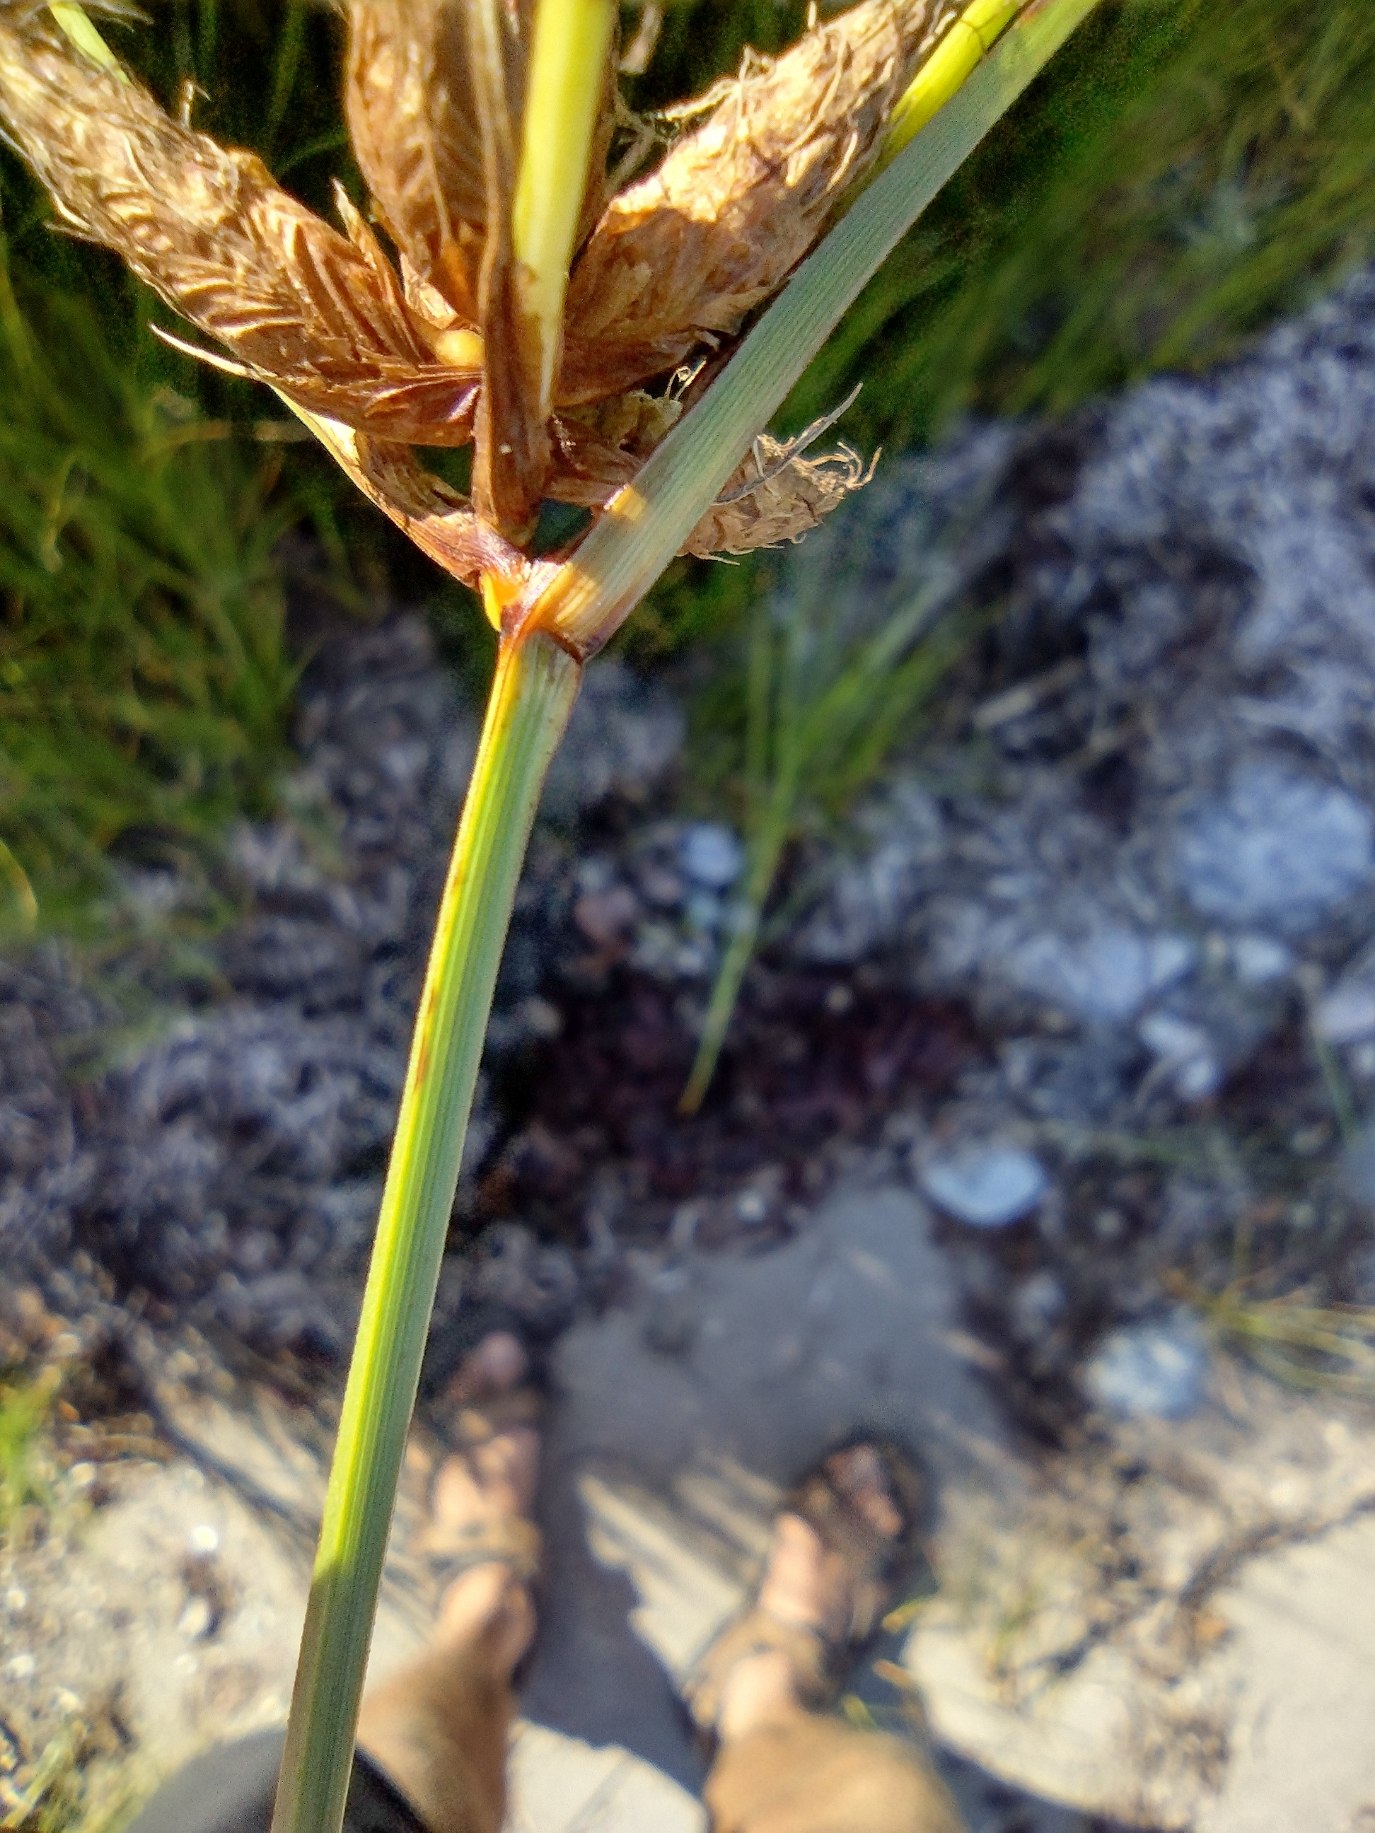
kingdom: Plantae
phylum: Tracheophyta
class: Liliopsida
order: Poales
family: Cyperaceae
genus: Bolboschoenus
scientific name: Bolboschoenus maritimus
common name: Strand-kogleaks
